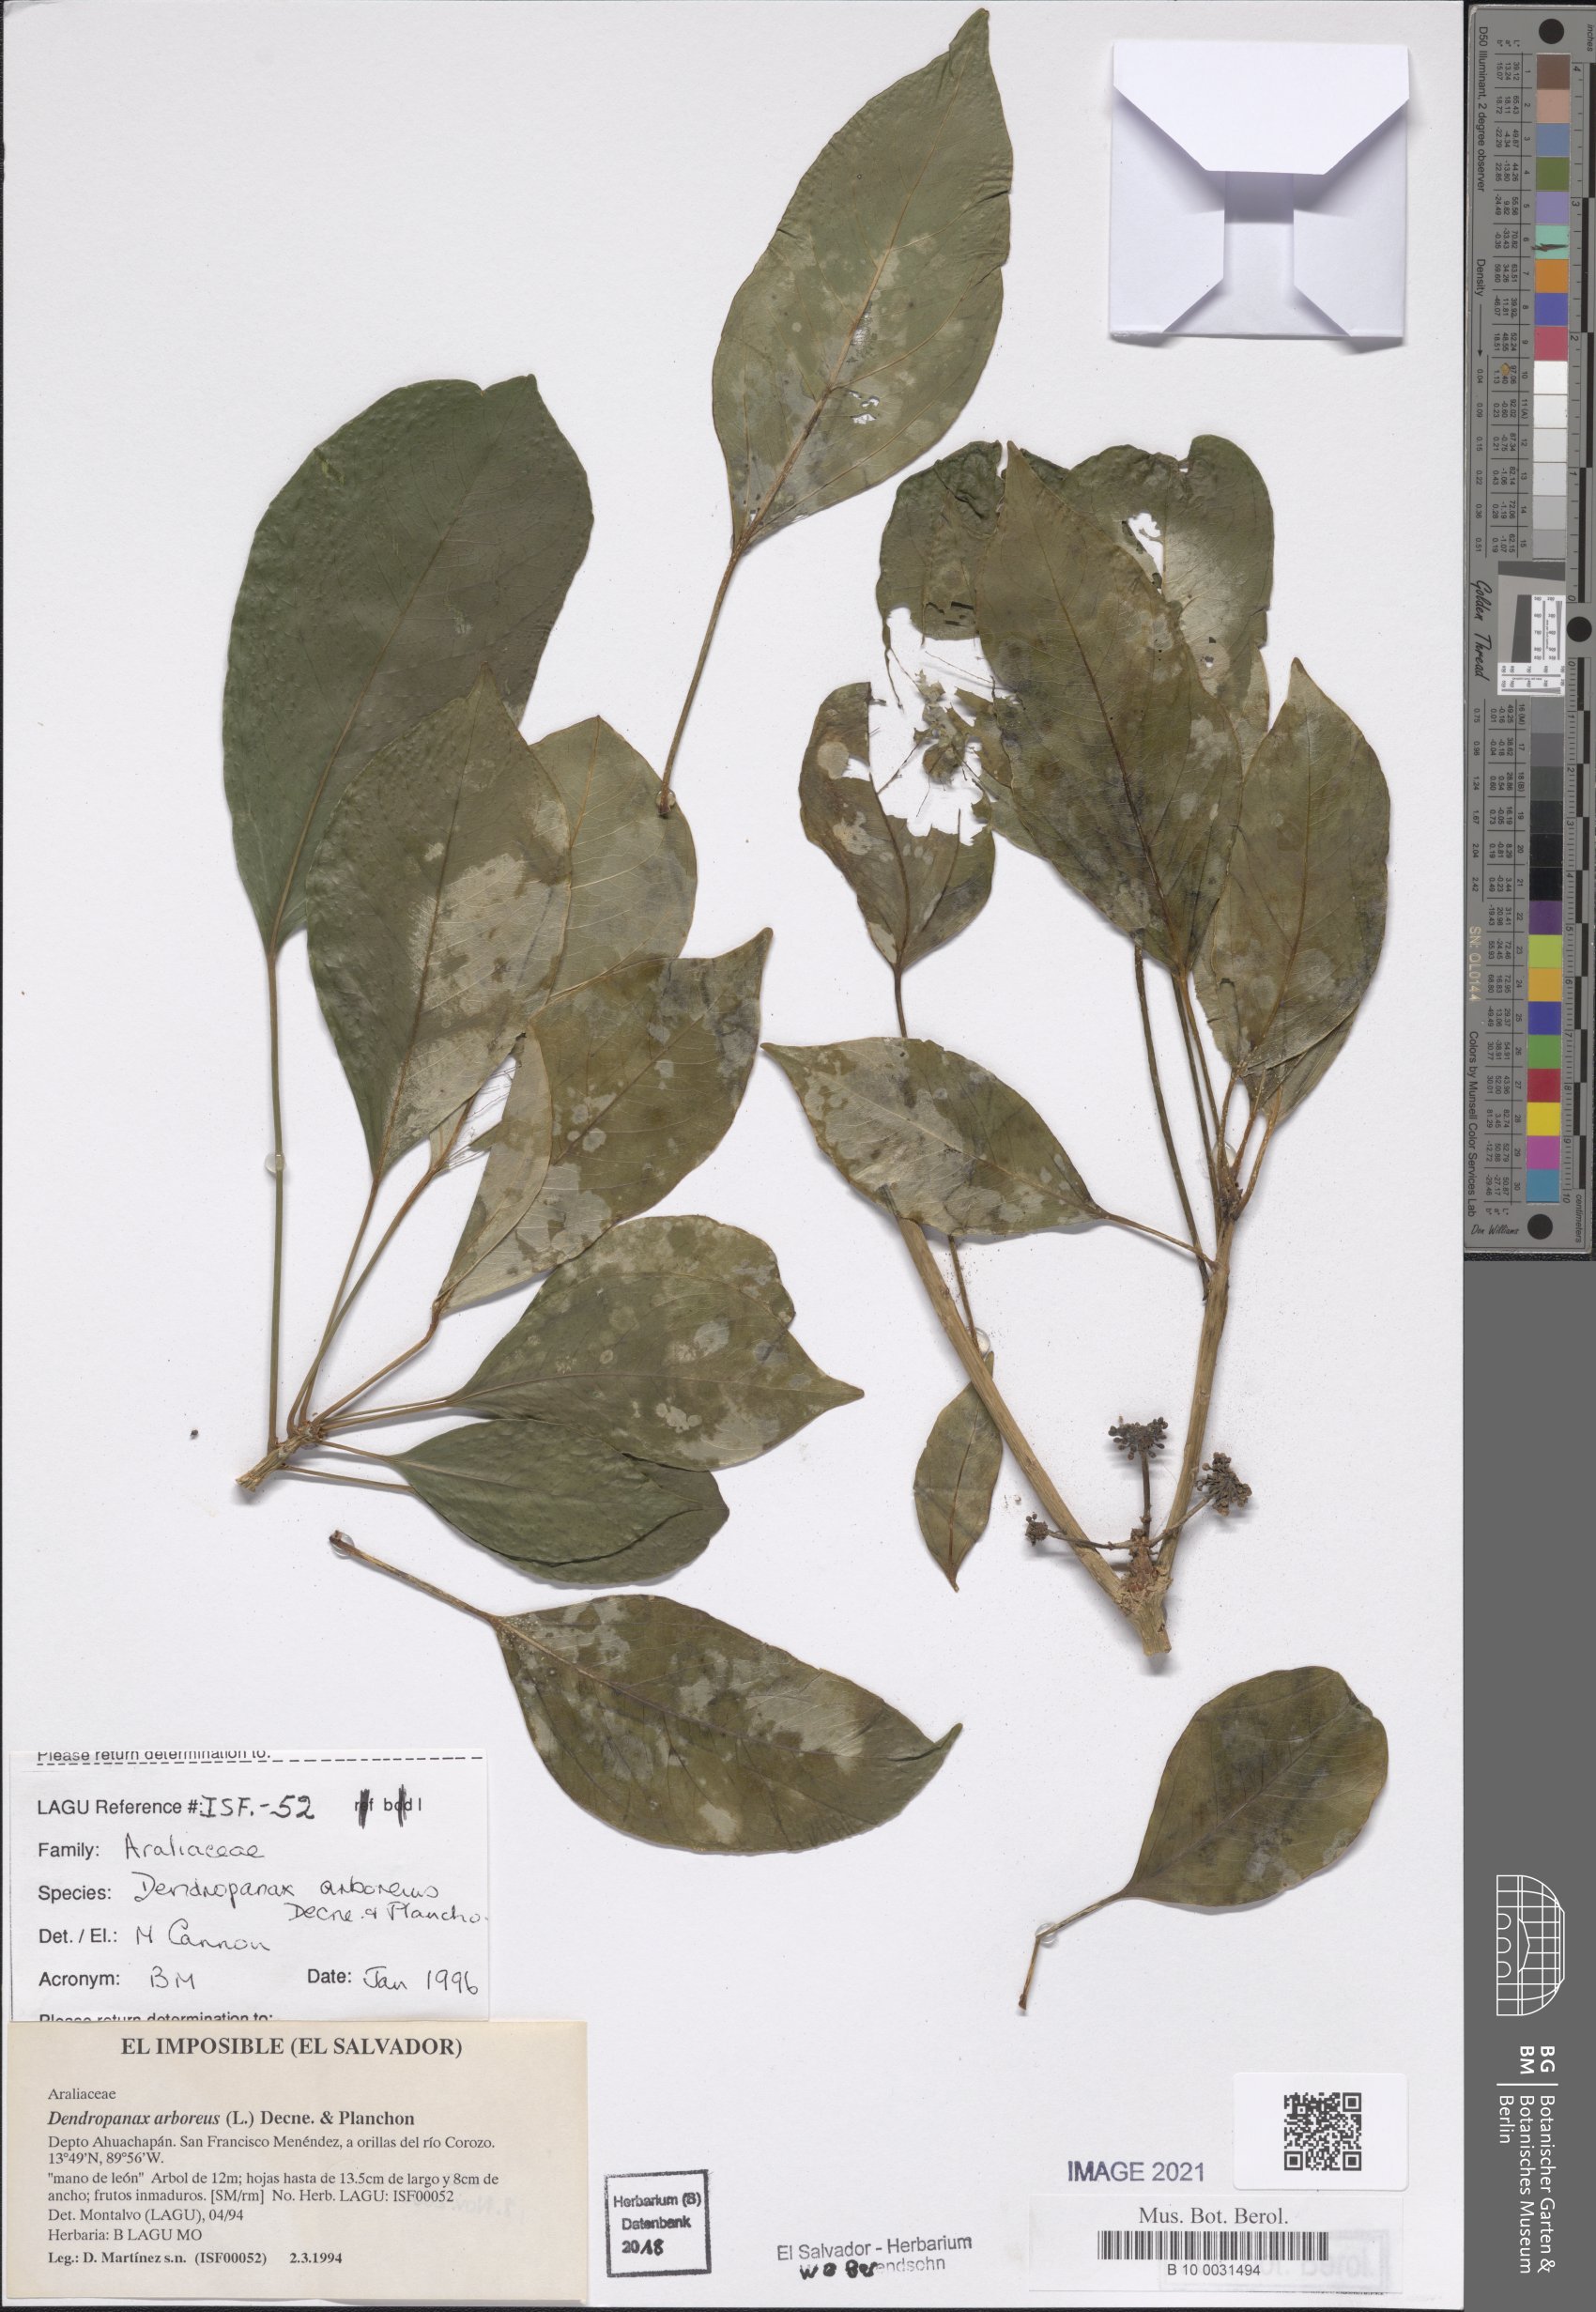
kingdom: Plantae
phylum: Tracheophyta
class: Magnoliopsida
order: Apiales
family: Araliaceae
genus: Dendropanax
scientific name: Dendropanax arboreus
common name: Potato-wood
